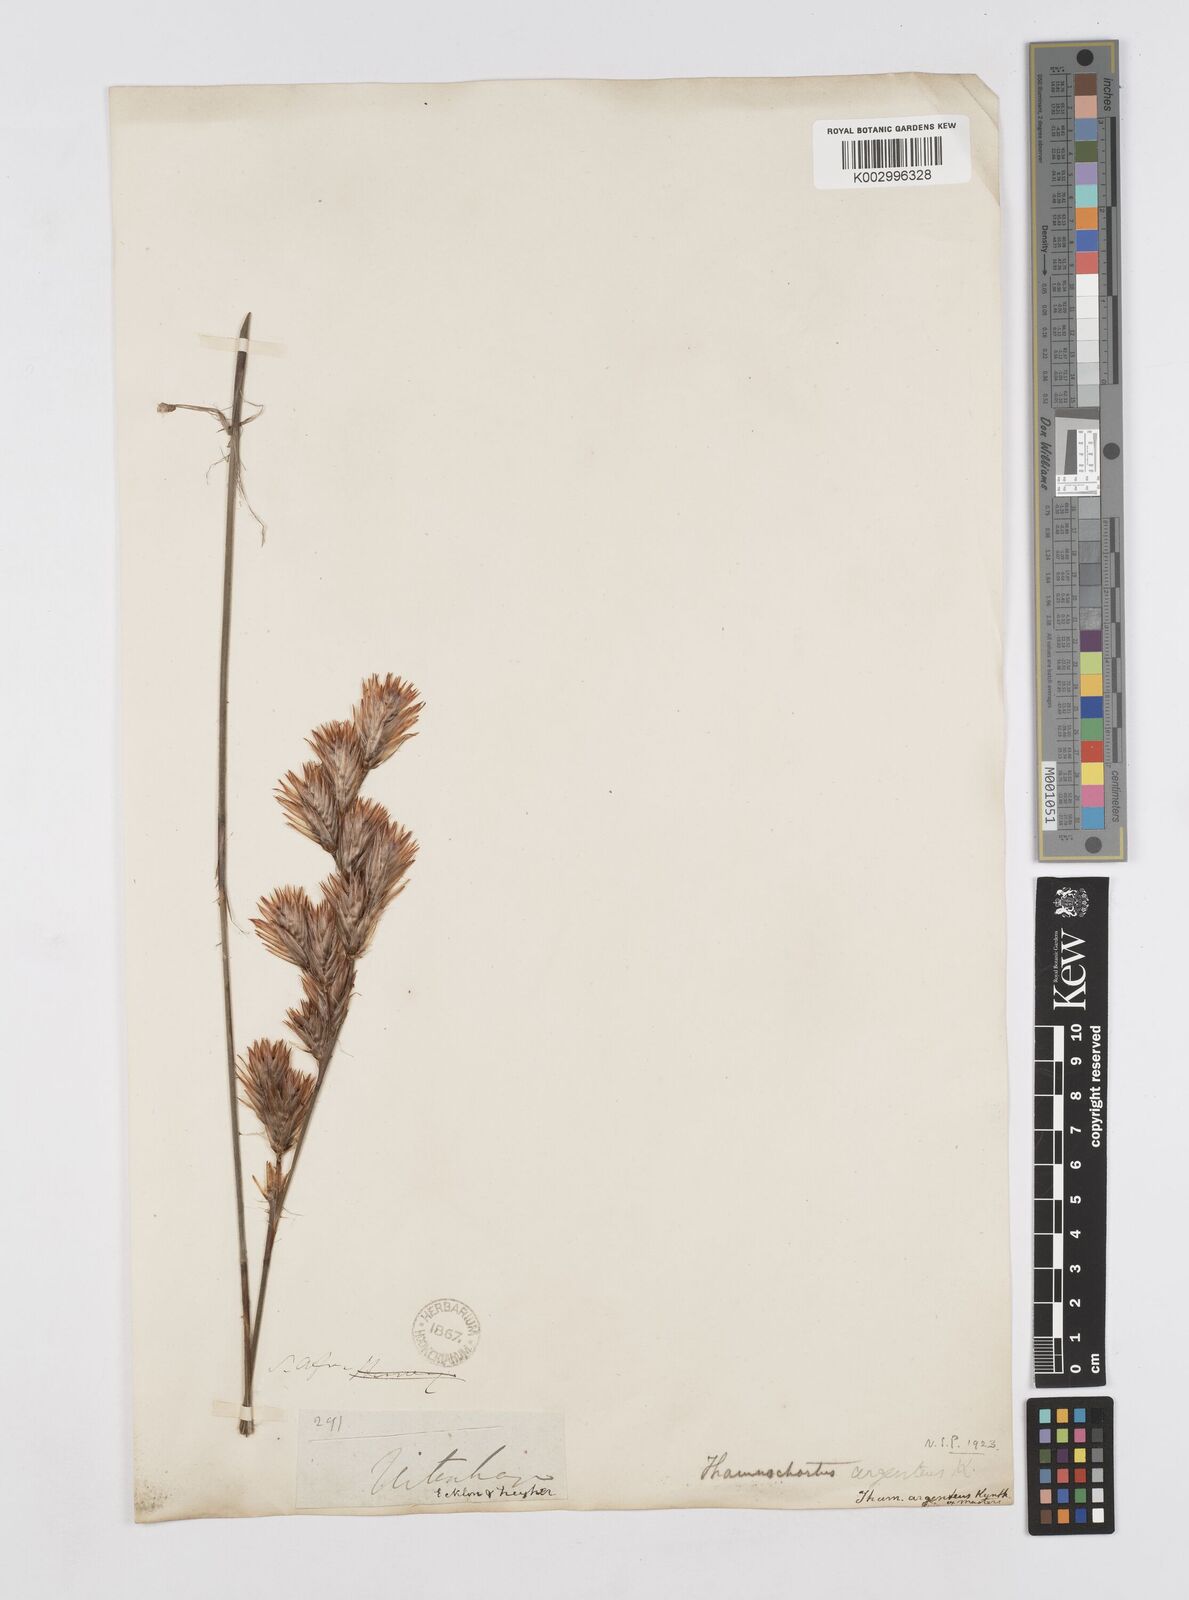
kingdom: Plantae
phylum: Tracheophyta
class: Liliopsida
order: Poales
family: Restionaceae
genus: Hypodiscus
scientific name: Hypodiscus argenteus
